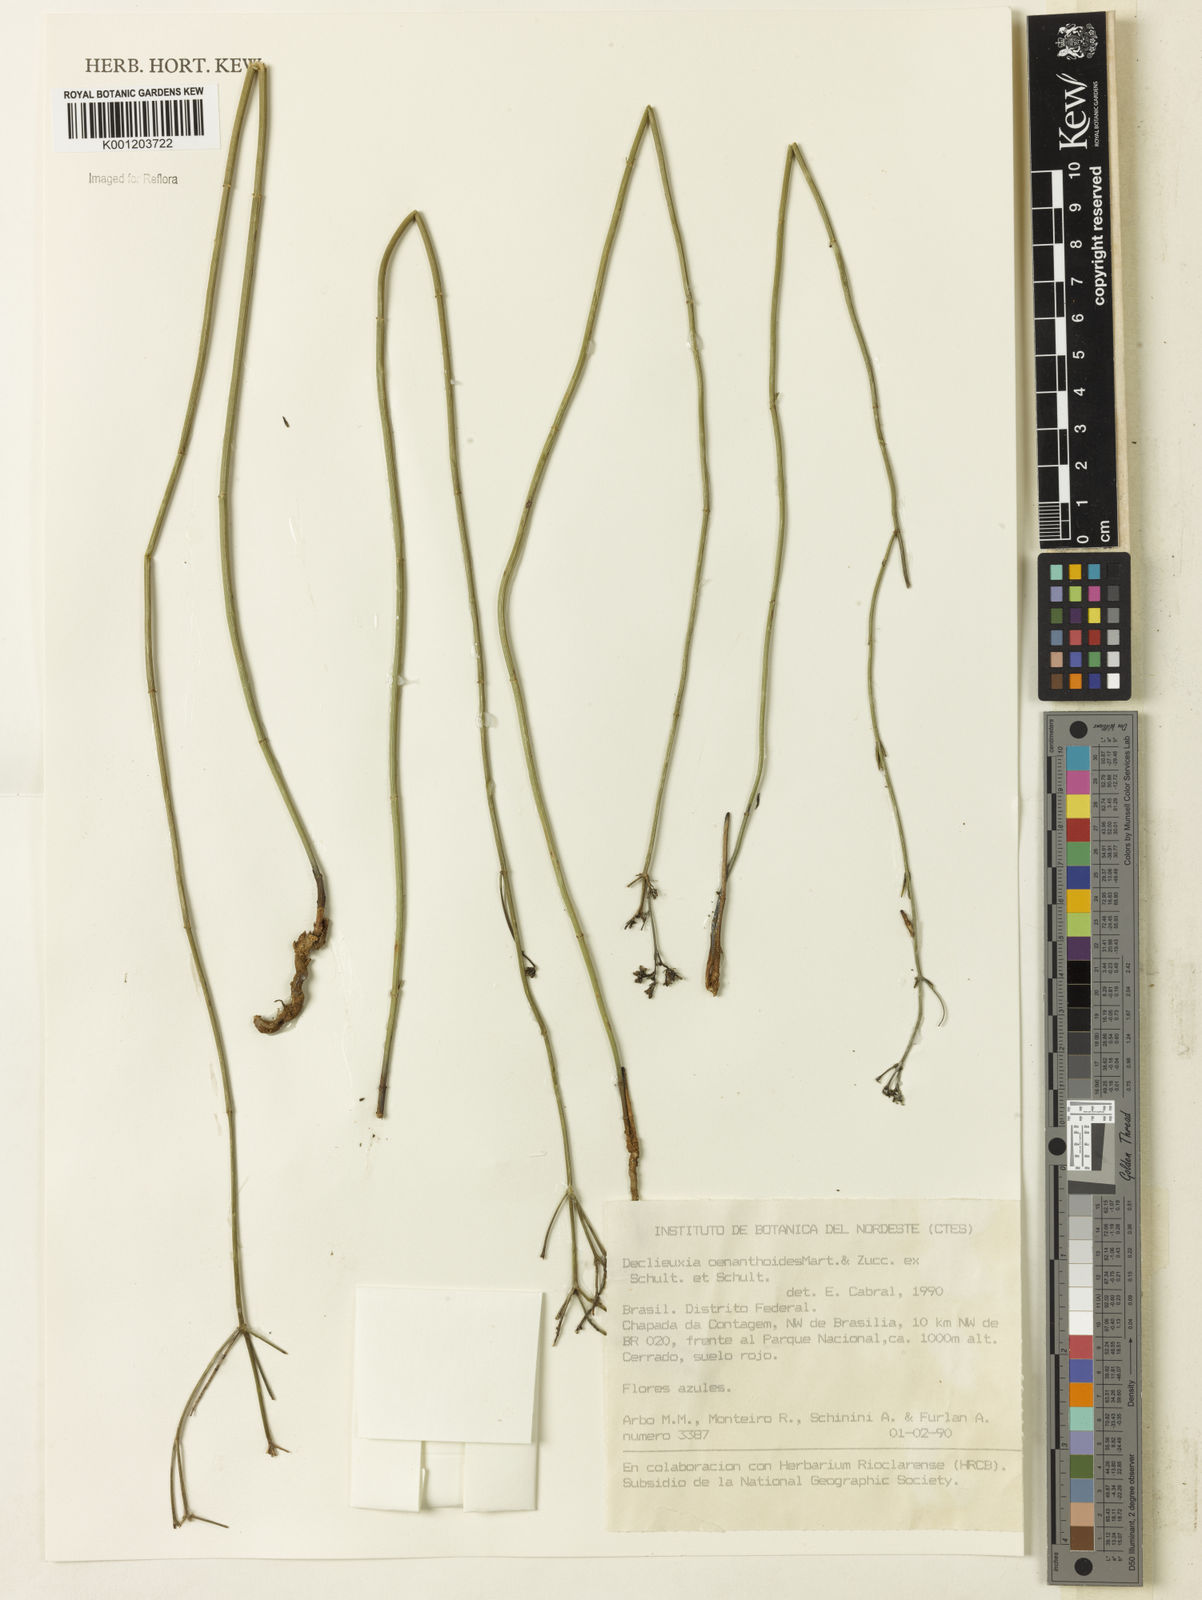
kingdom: Plantae
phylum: Tracheophyta
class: Magnoliopsida
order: Gentianales
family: Rubiaceae
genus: Declieuxia
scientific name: Declieuxia
